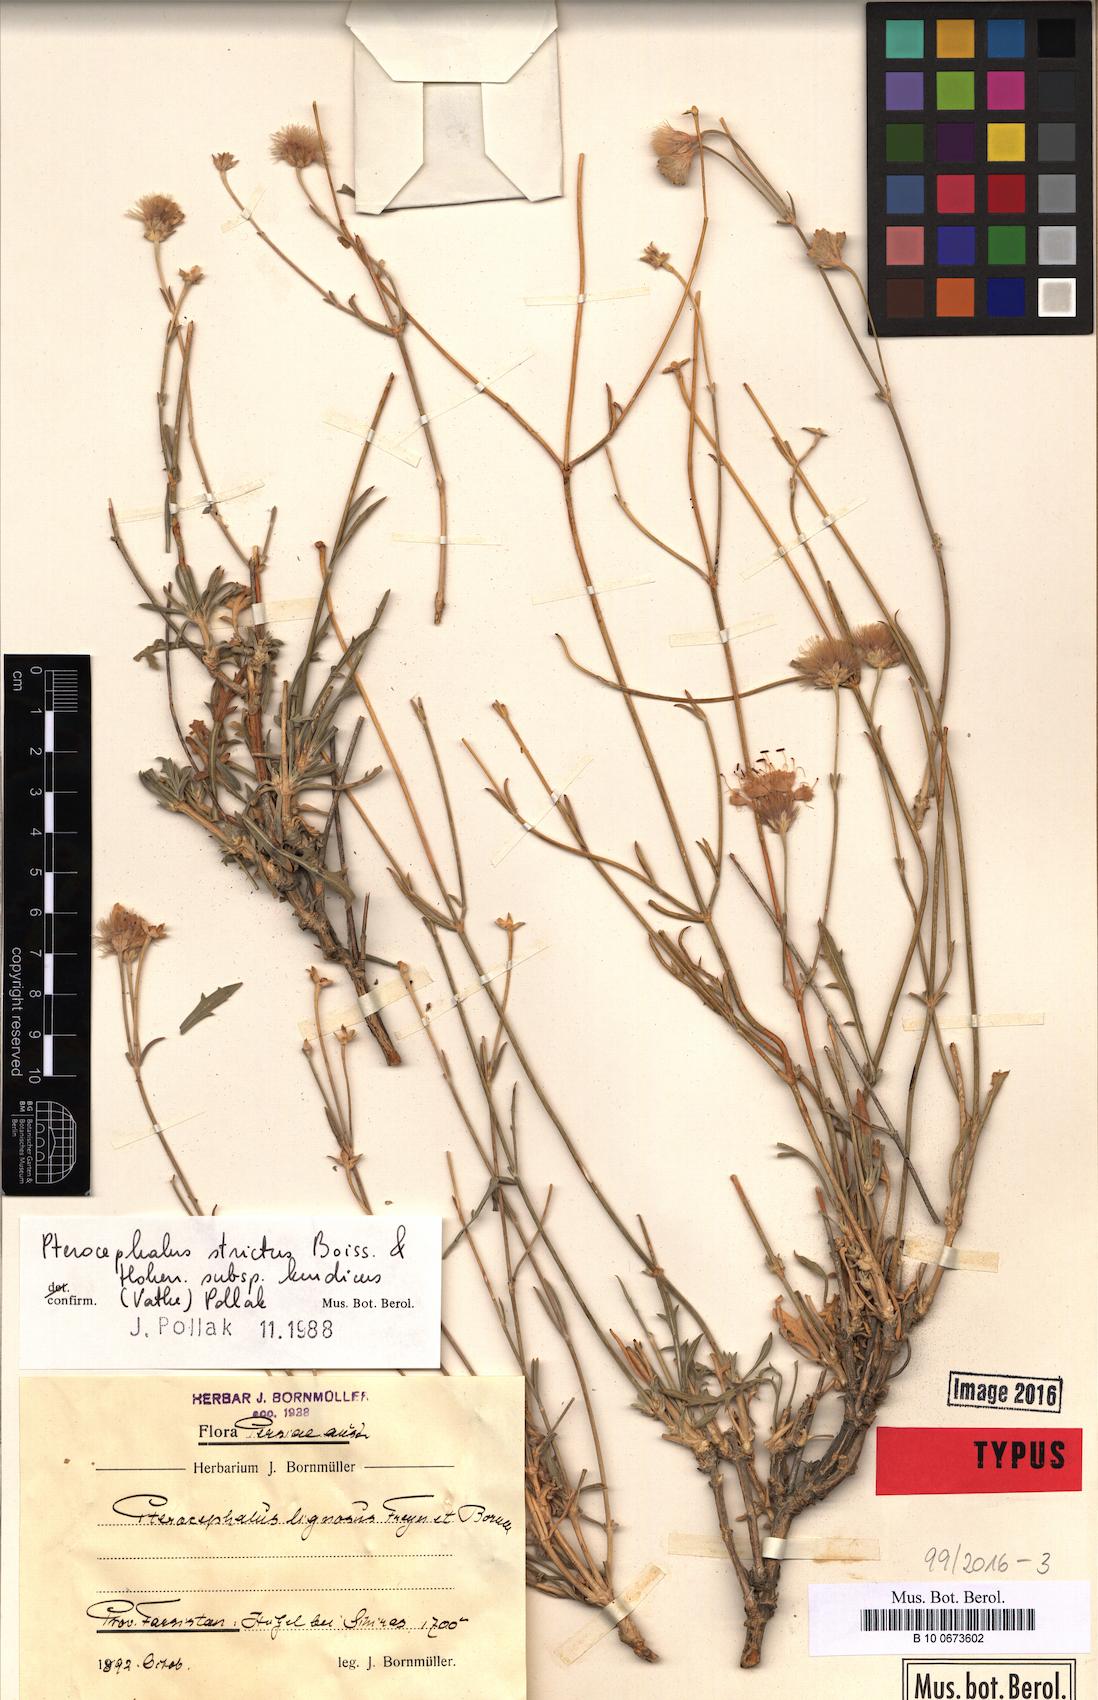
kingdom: Plantae
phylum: Tracheophyta
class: Magnoliopsida
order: Dipsacales
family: Caprifoliaceae
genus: Pterocephalus
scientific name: Pterocephalus strictus
